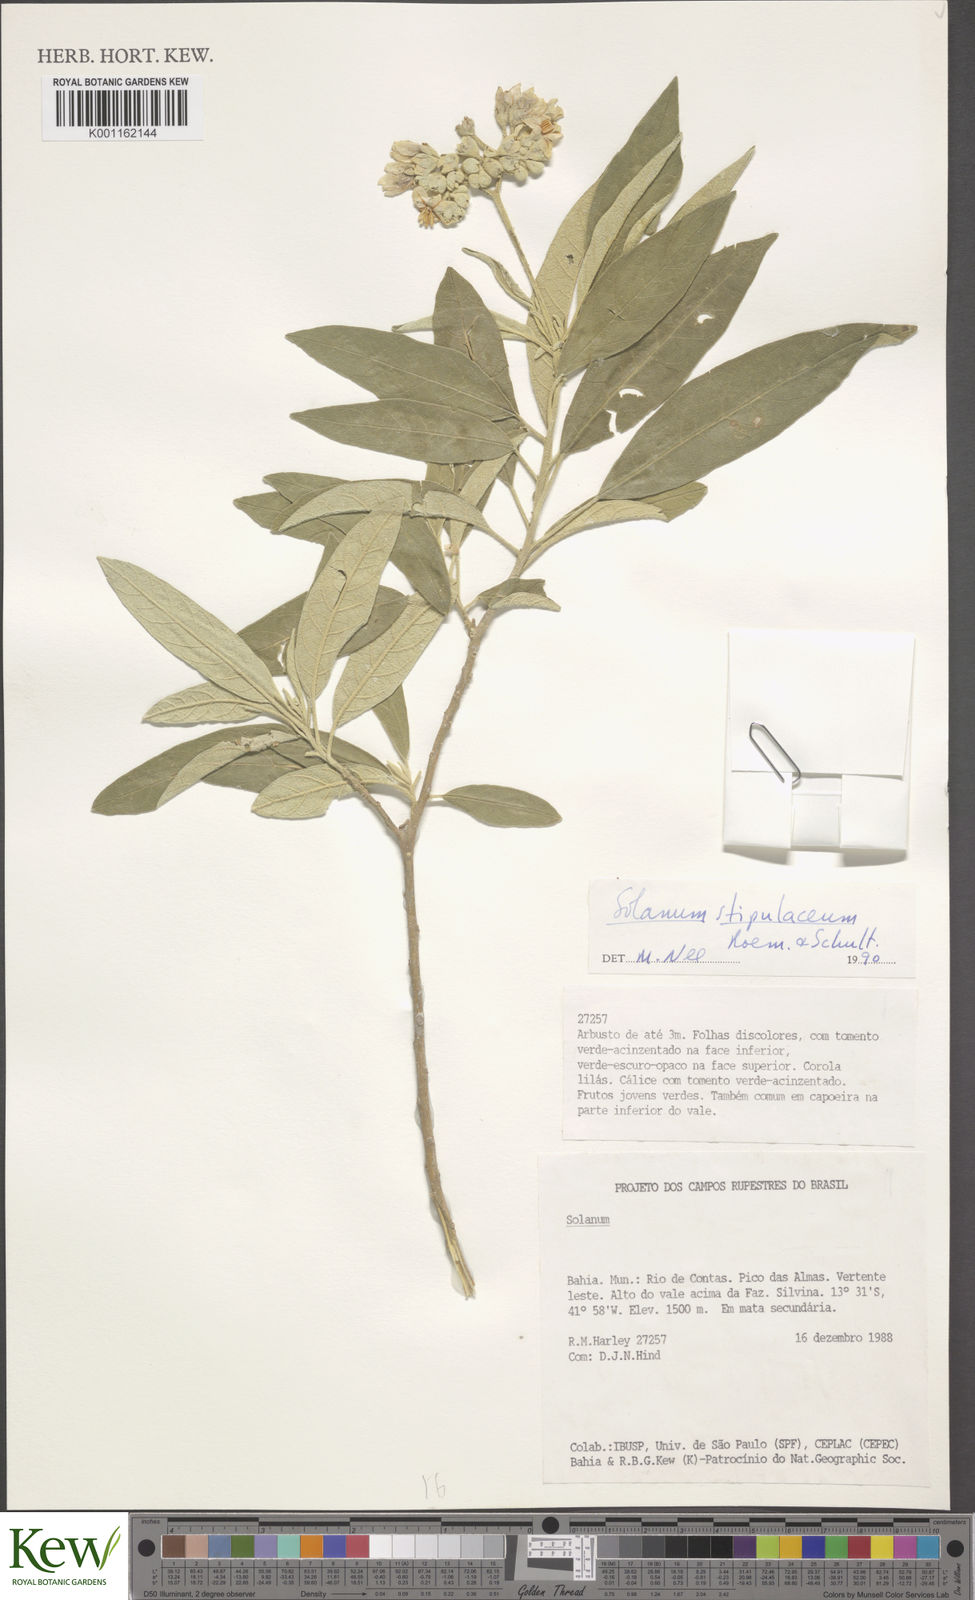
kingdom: Plantae
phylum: Tracheophyta
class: Magnoliopsida
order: Solanales
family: Solanaceae
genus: Solanum
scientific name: Solanum stipulaceum
